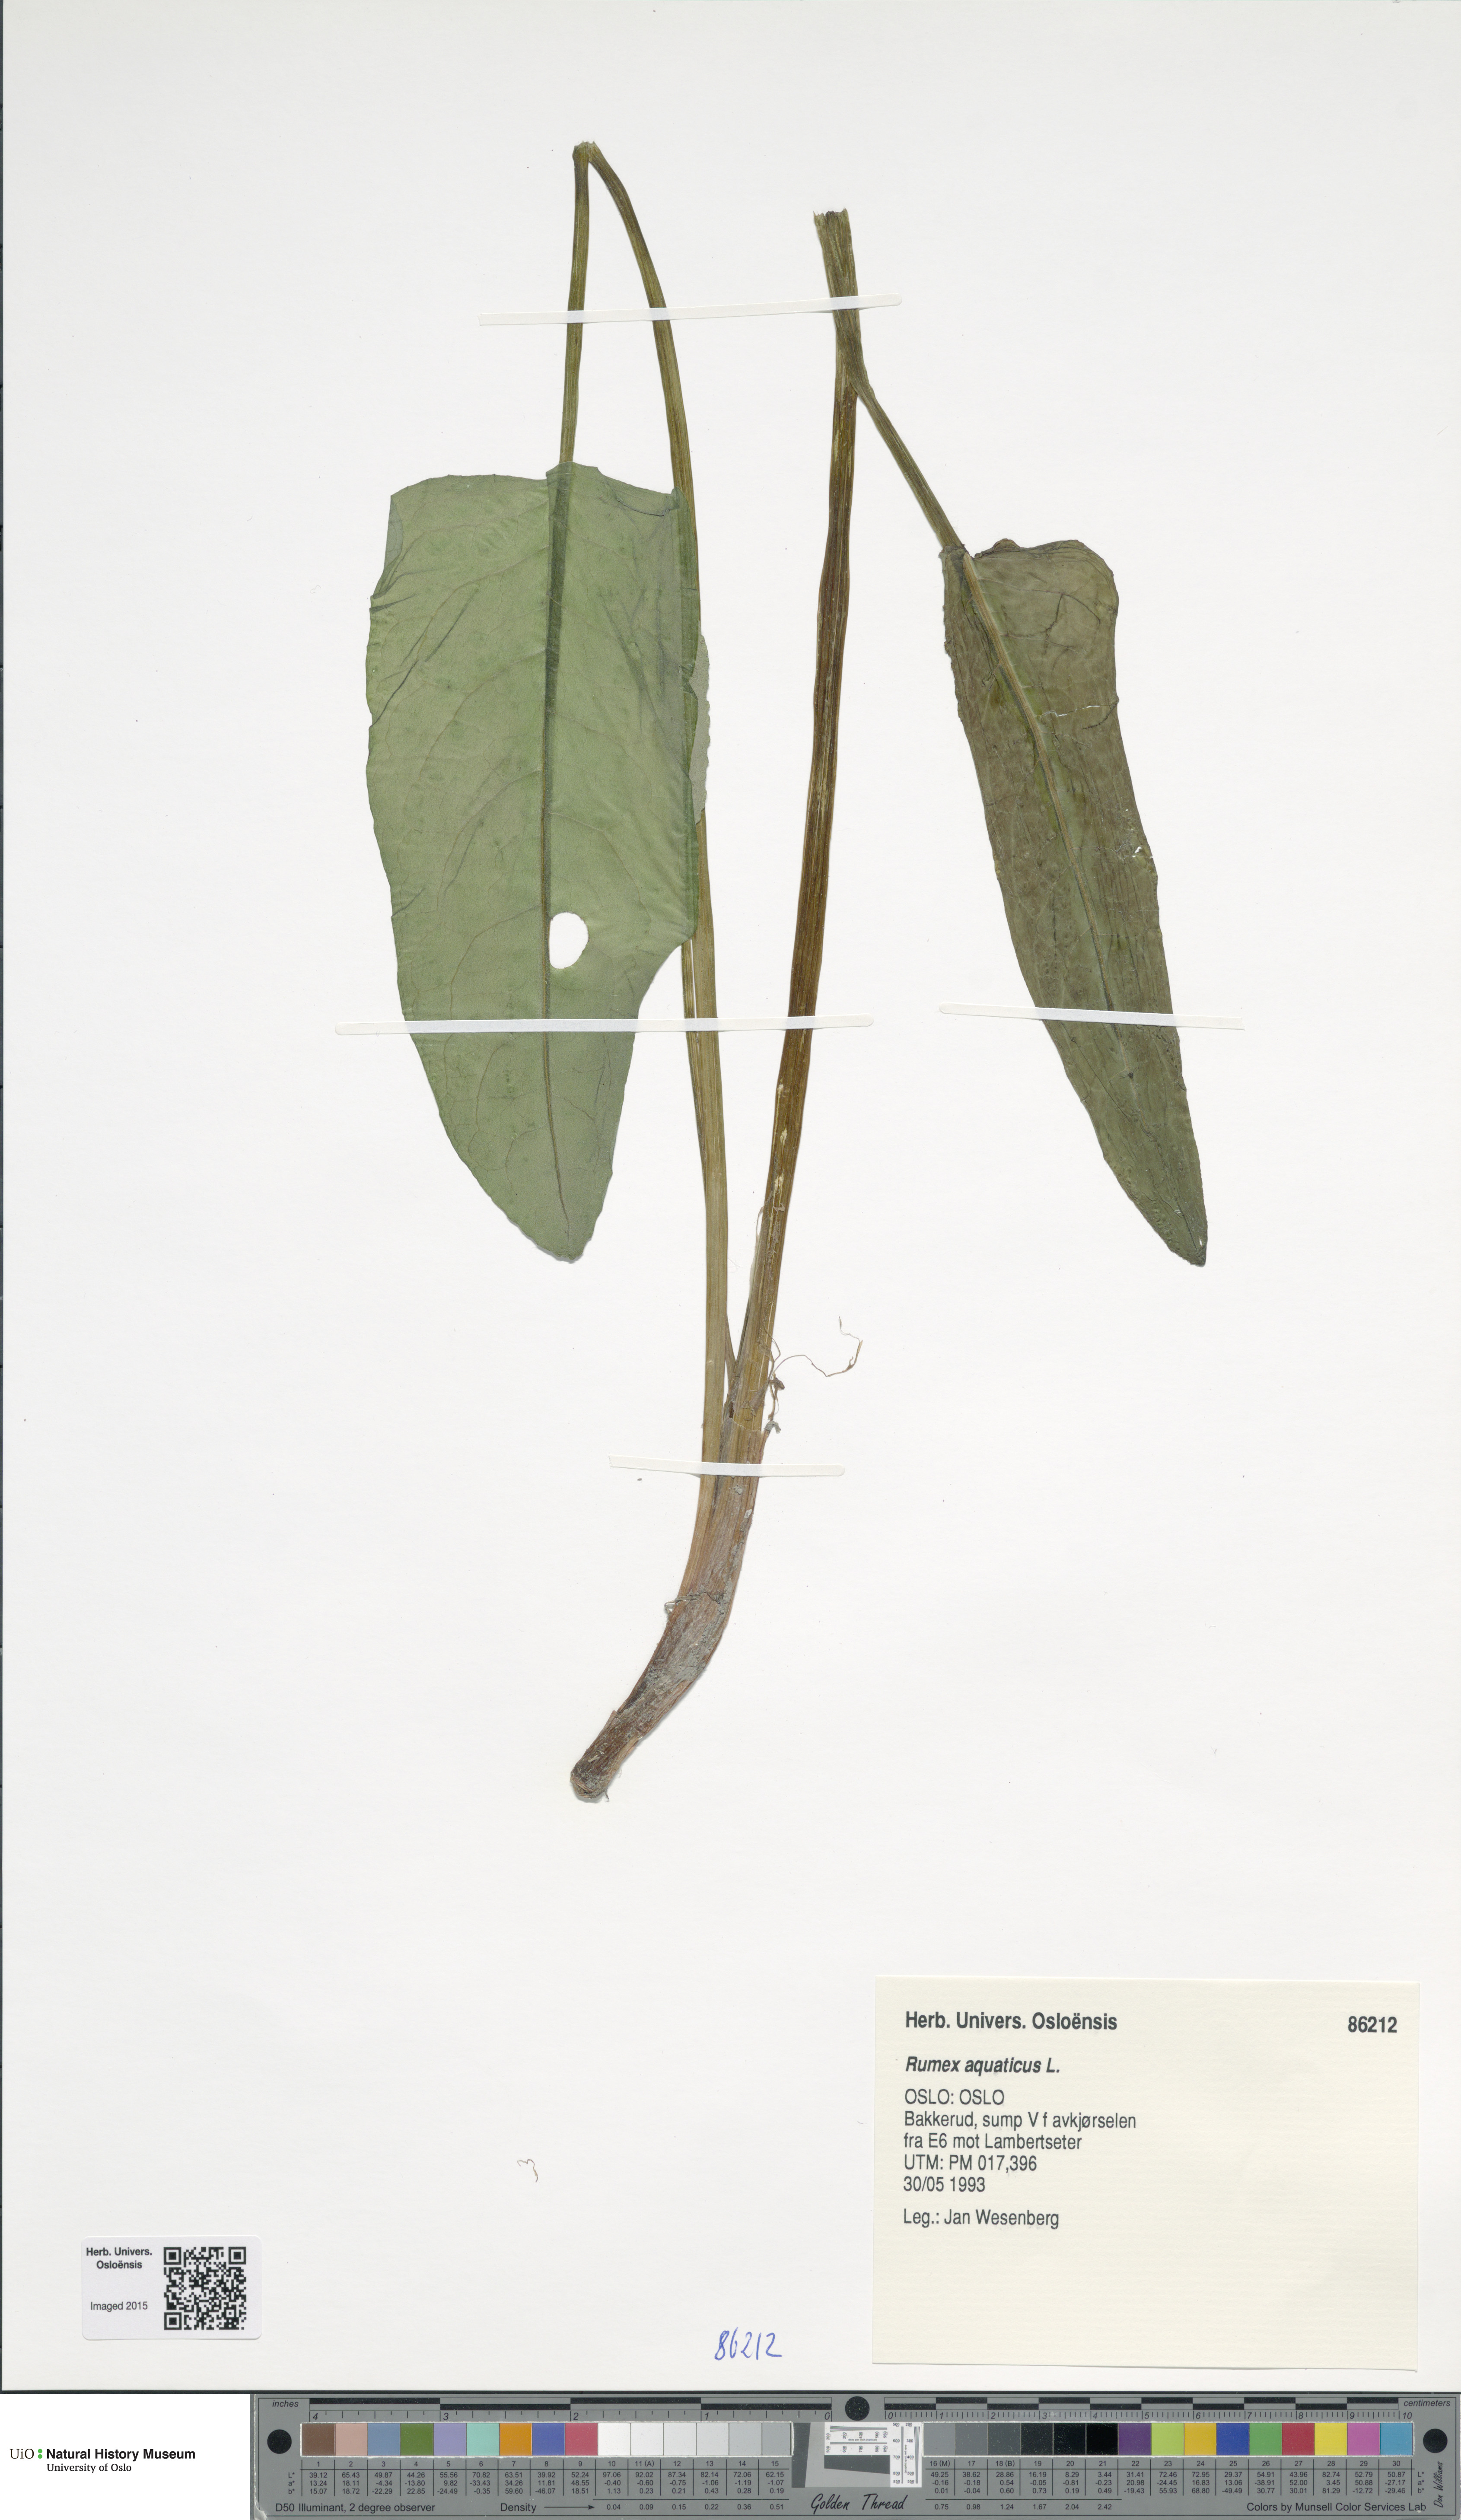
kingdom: Plantae
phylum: Tracheophyta
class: Magnoliopsida
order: Caryophyllales
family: Polygonaceae
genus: Rumex
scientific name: Rumex aquaticus
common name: Scottish dock
